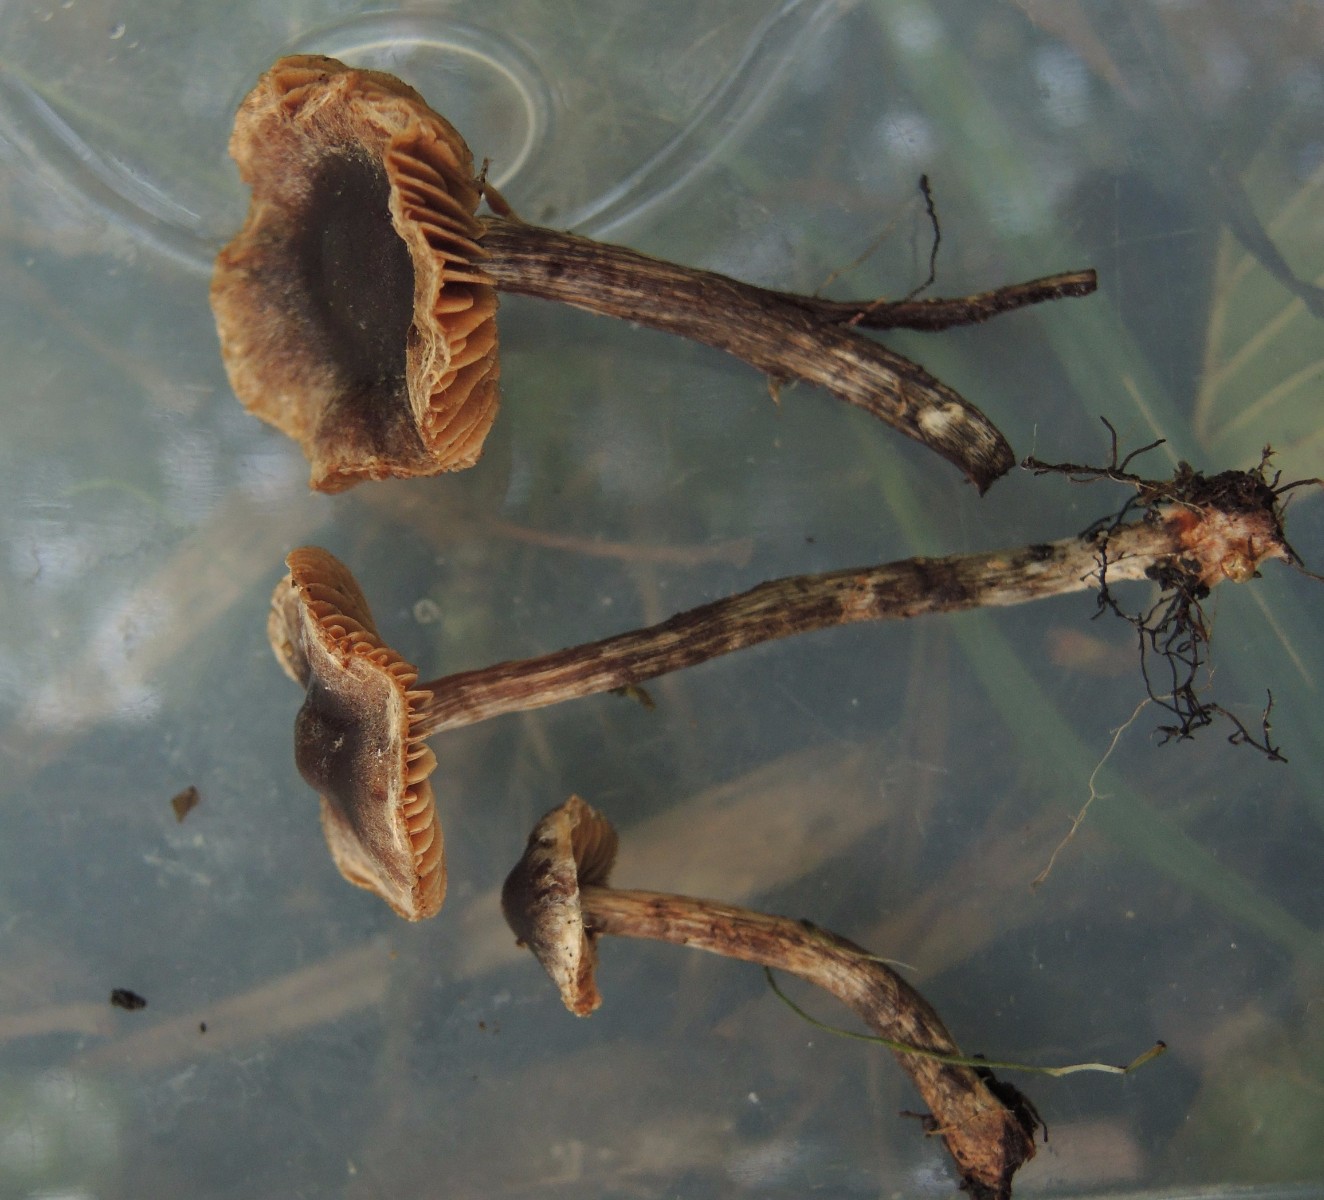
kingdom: Fungi
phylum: Basidiomycota
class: Agaricomycetes
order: Agaricales
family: Cortinariaceae
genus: Cortinarius
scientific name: Cortinarius griseocarneus
